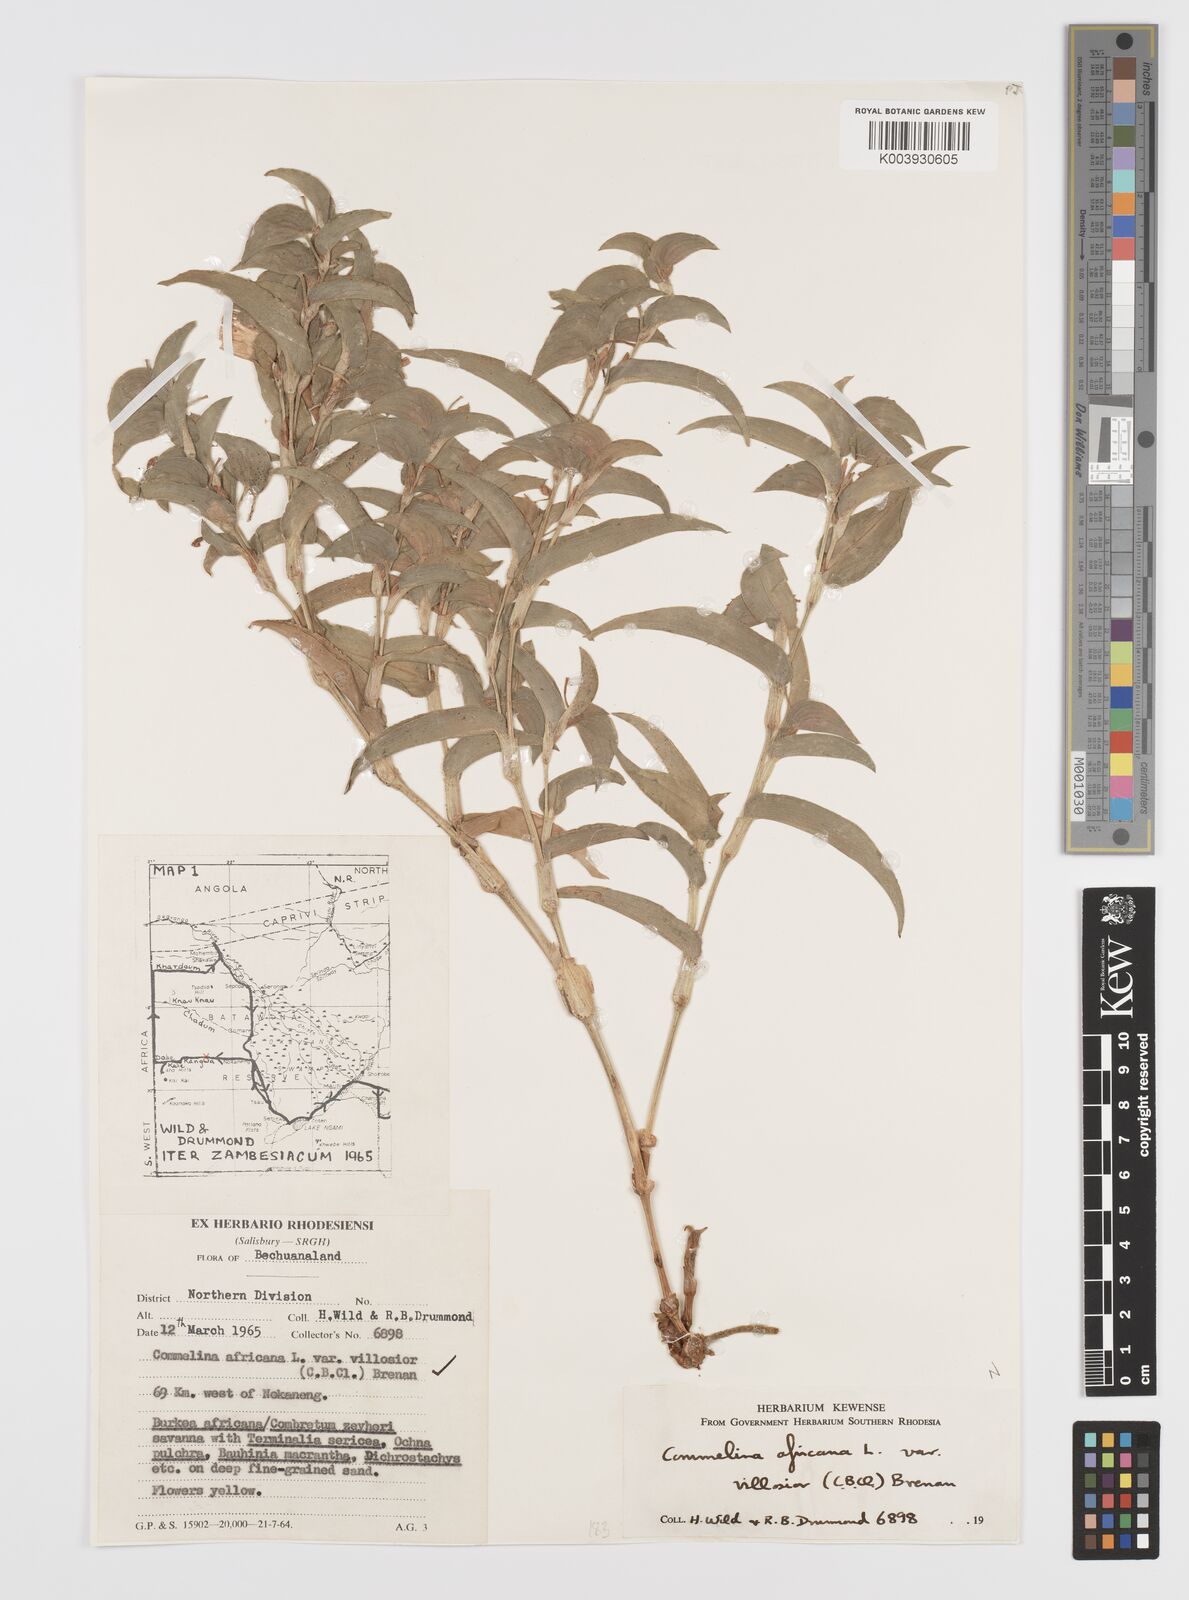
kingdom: Plantae
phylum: Tracheophyta
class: Liliopsida
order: Commelinales
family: Commelinaceae
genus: Commelina
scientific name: Commelina africana
